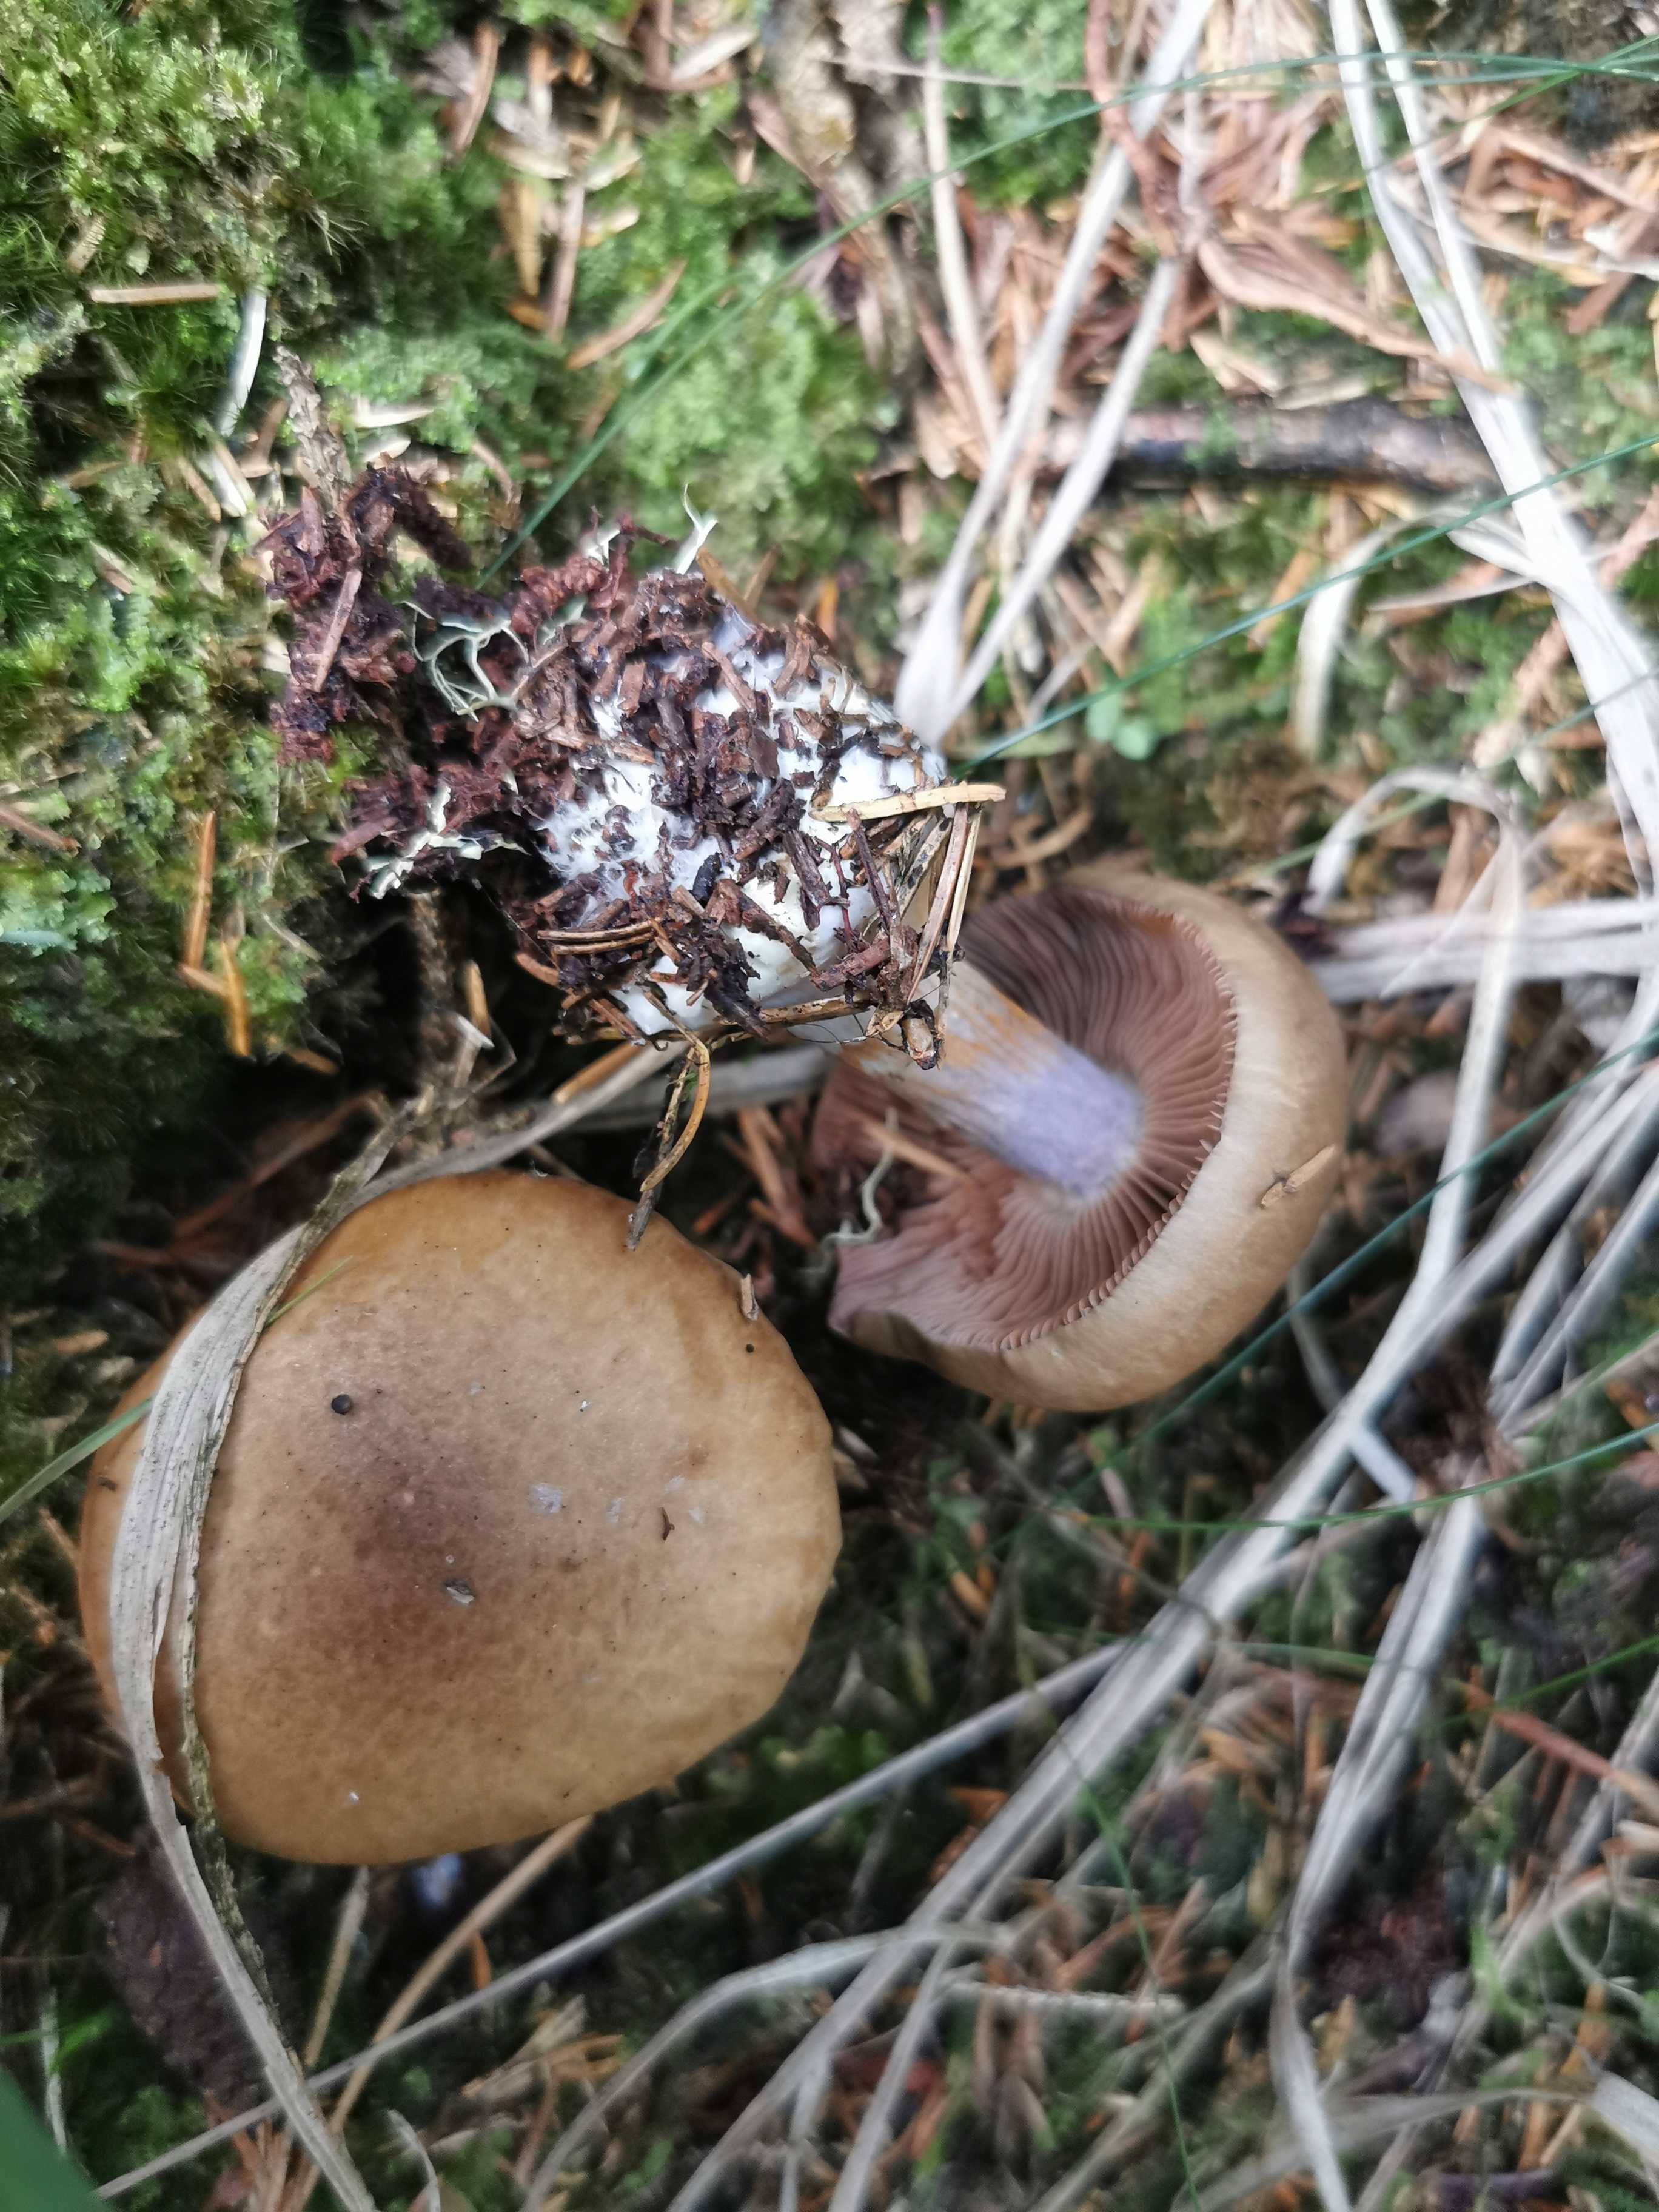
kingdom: Fungi
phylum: Basidiomycota
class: Agaricomycetes
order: Agaricales
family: Cortinariaceae
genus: Thaxterogaster
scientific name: Thaxterogaster purpurascens
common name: purpurbrun slørhat
